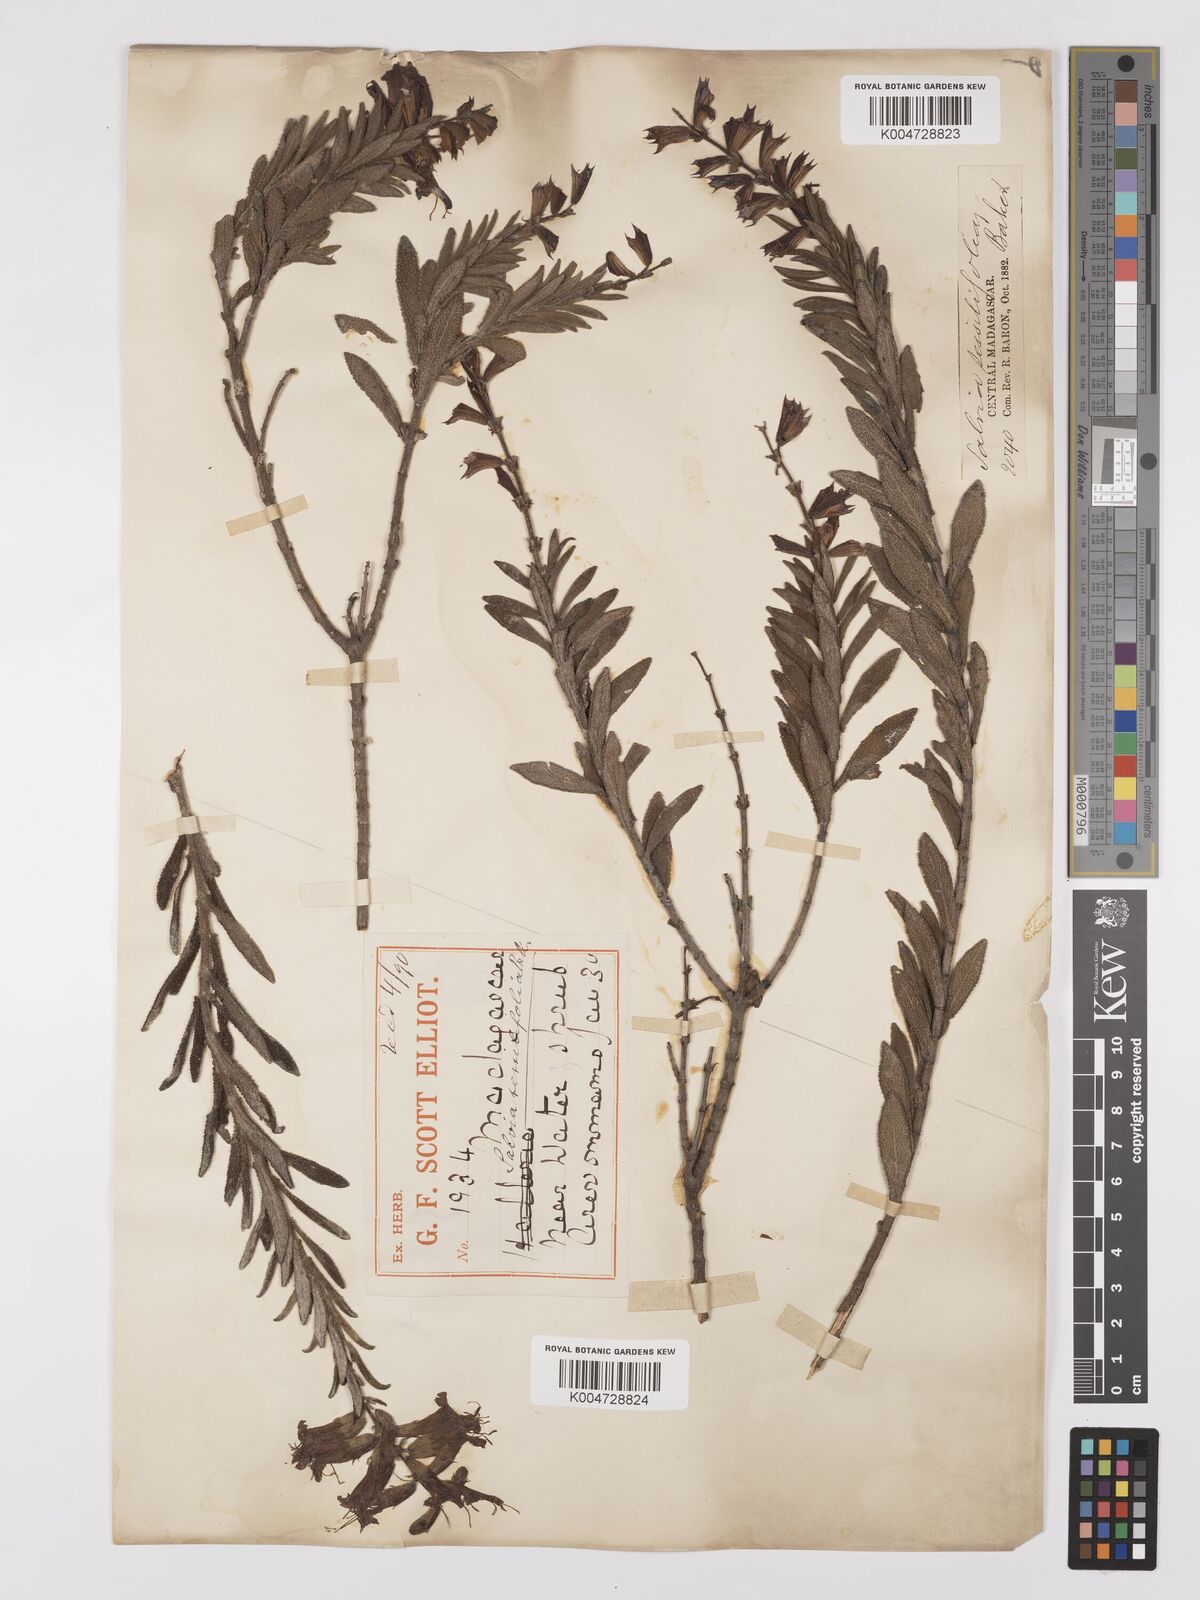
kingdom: Plantae
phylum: Tracheophyta
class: Magnoliopsida
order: Lamiales
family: Lamiaceae
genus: Salvia
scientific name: Salvia sessilifolia
